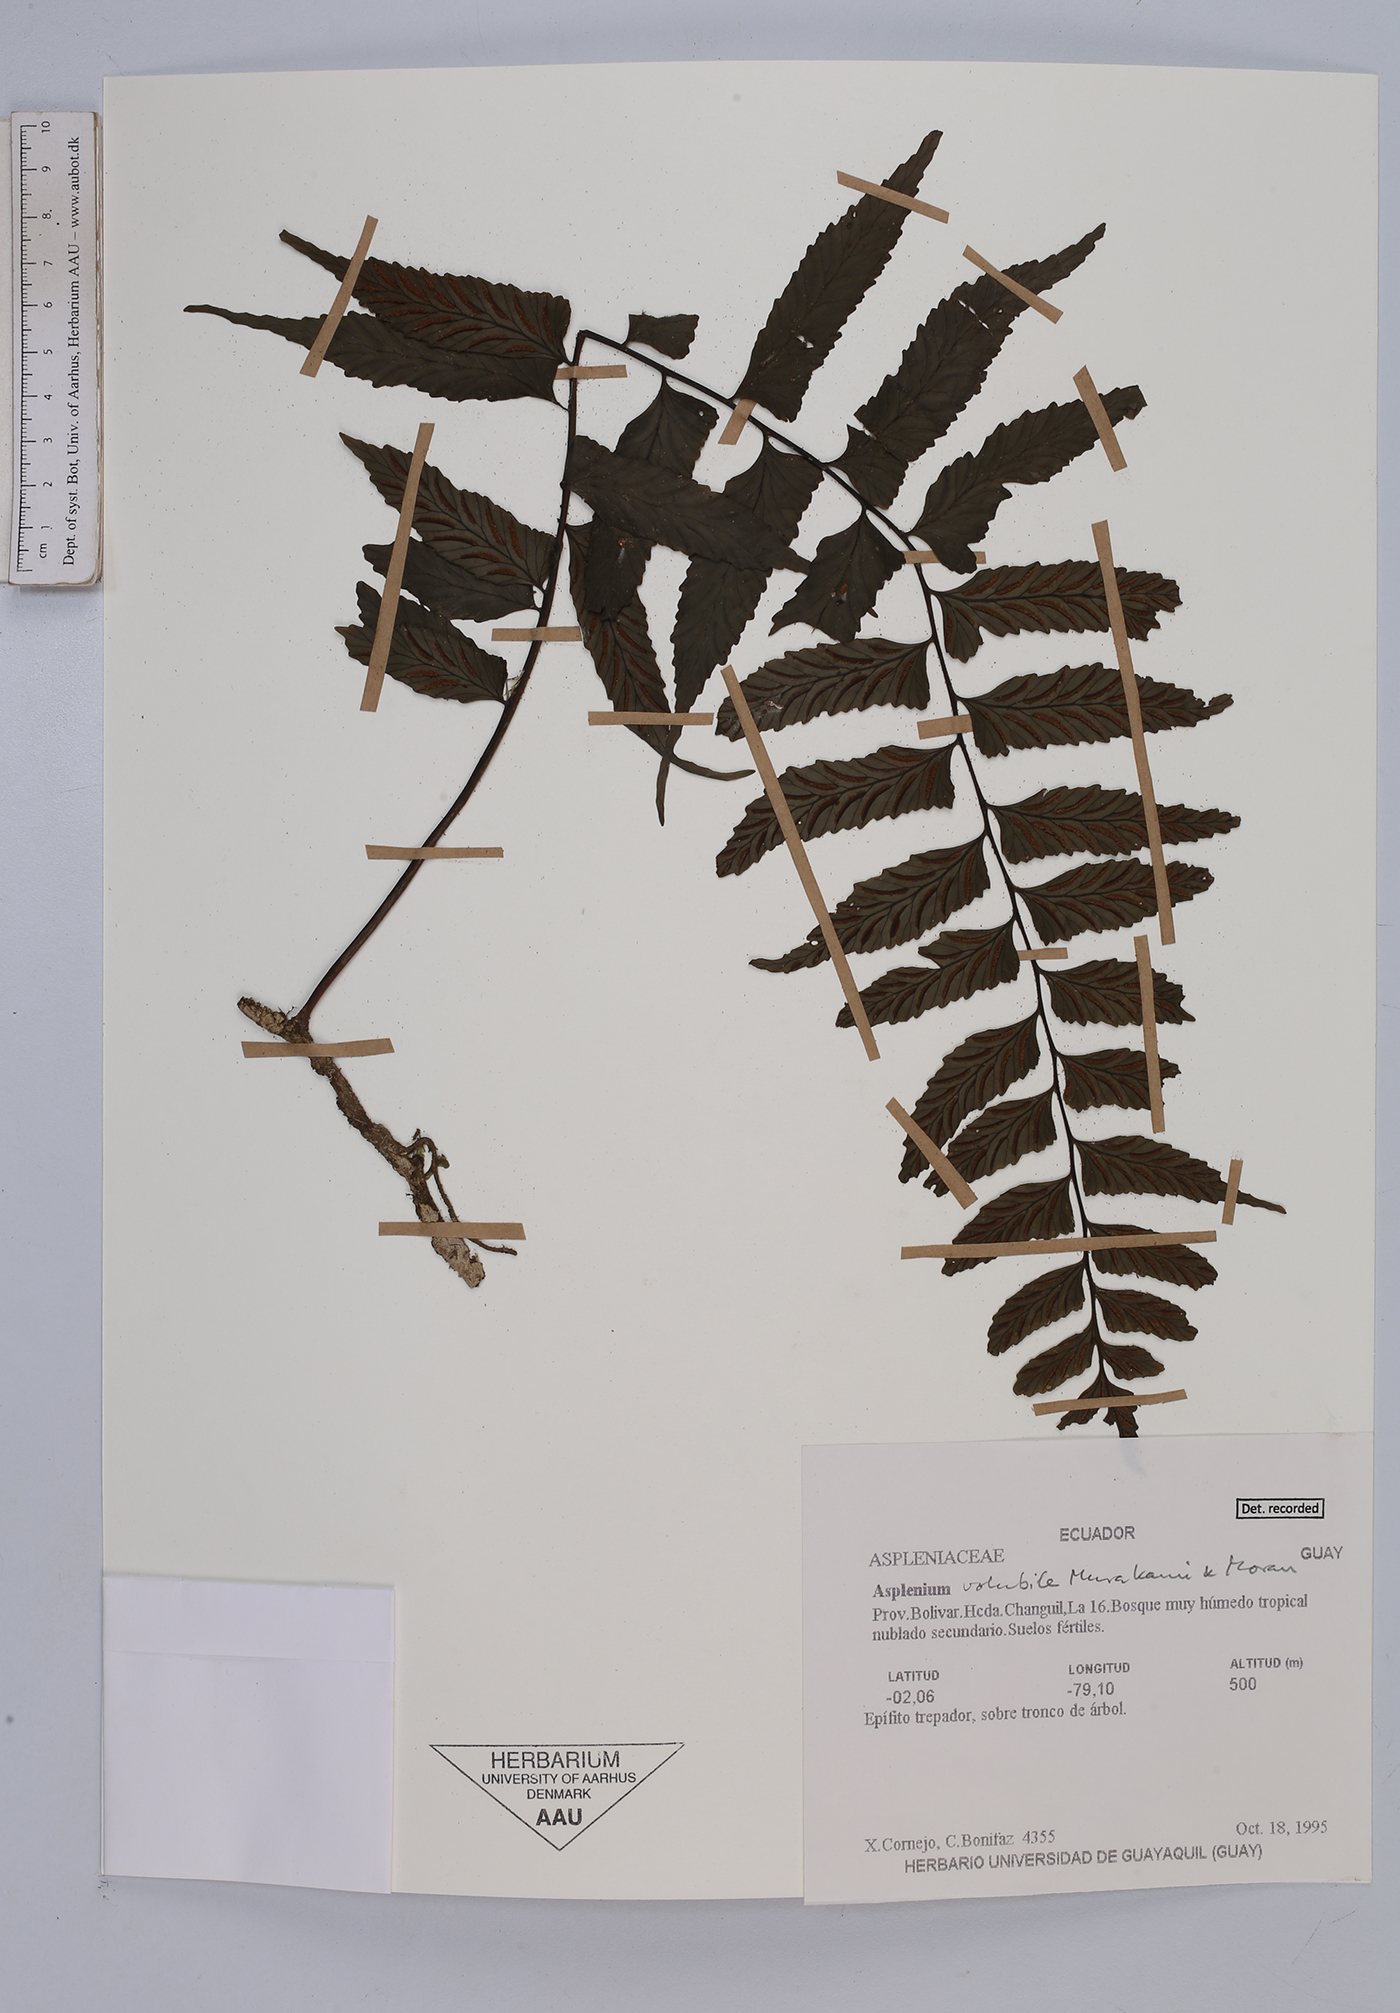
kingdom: Plantae
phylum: Tracheophyta
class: Polypodiopsida
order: Polypodiales
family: Aspleniaceae
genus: Hymenasplenium
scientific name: Hymenasplenium volubile
